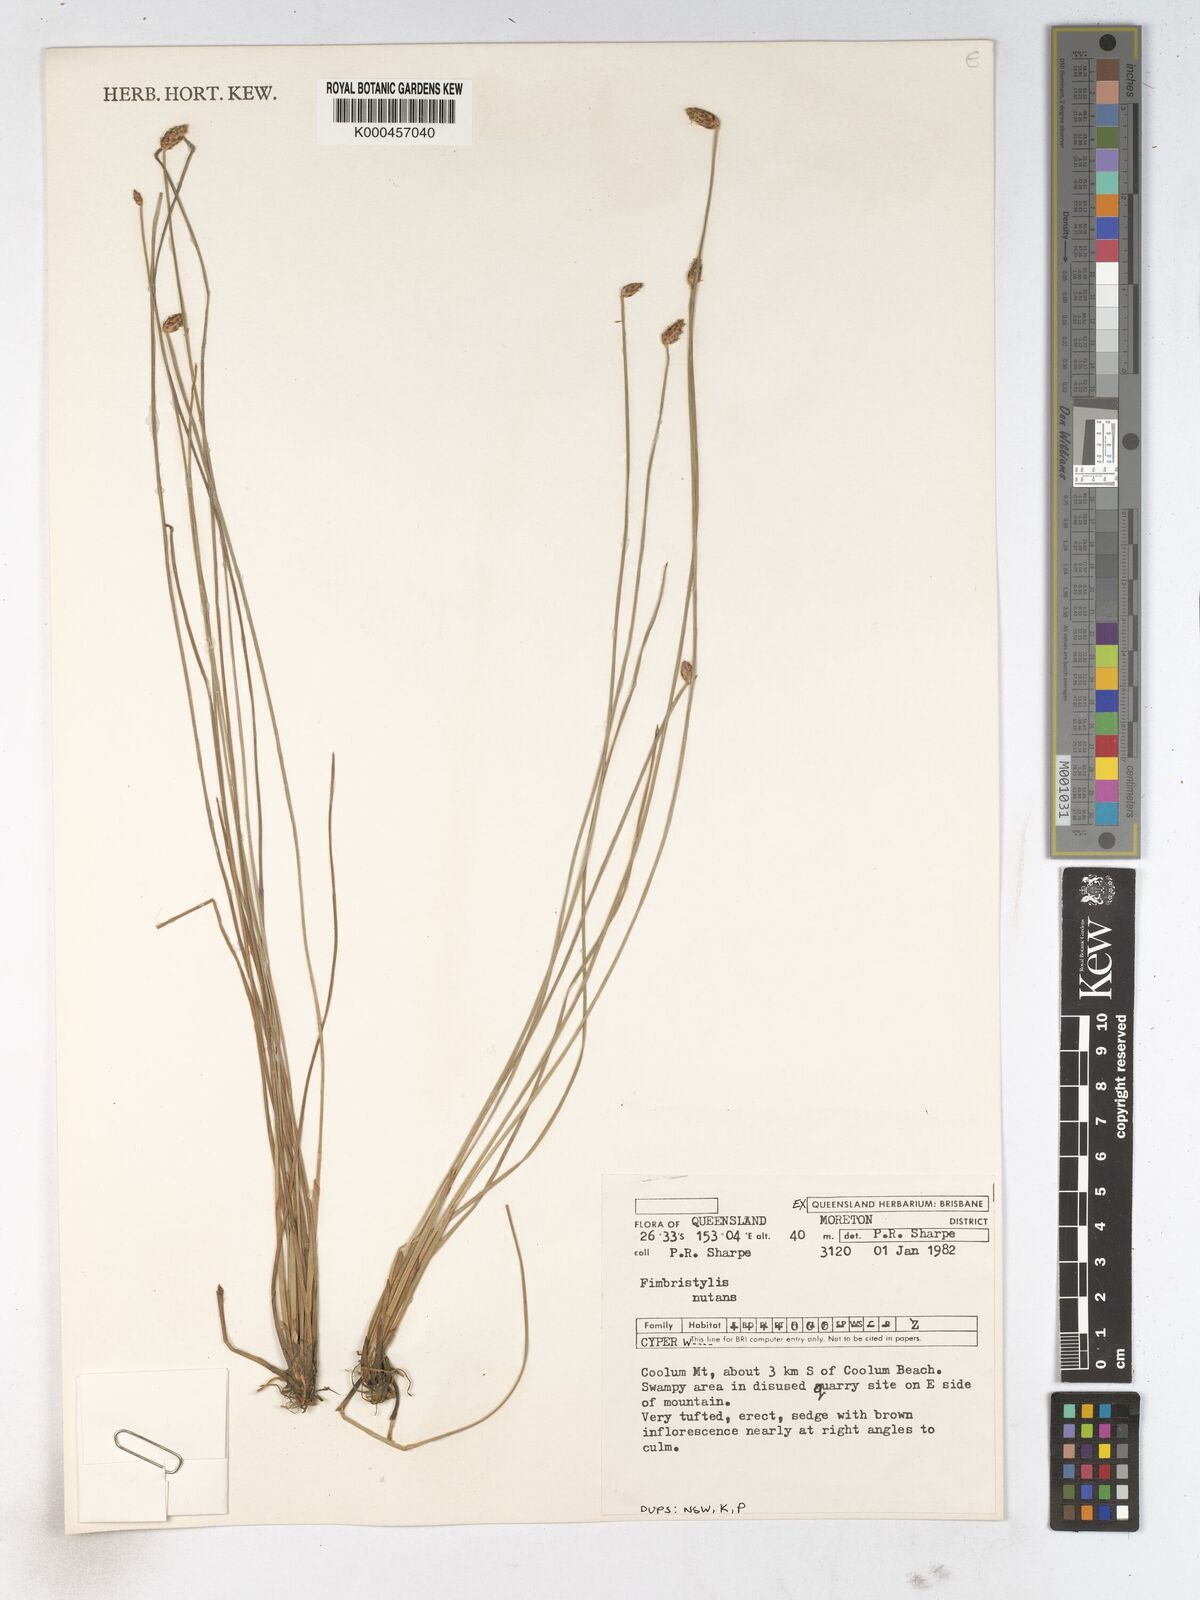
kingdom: Plantae
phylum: Tracheophyta
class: Liliopsida
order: Poales
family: Cyperaceae
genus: Fimbristylis
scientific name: Fimbristylis nutans
